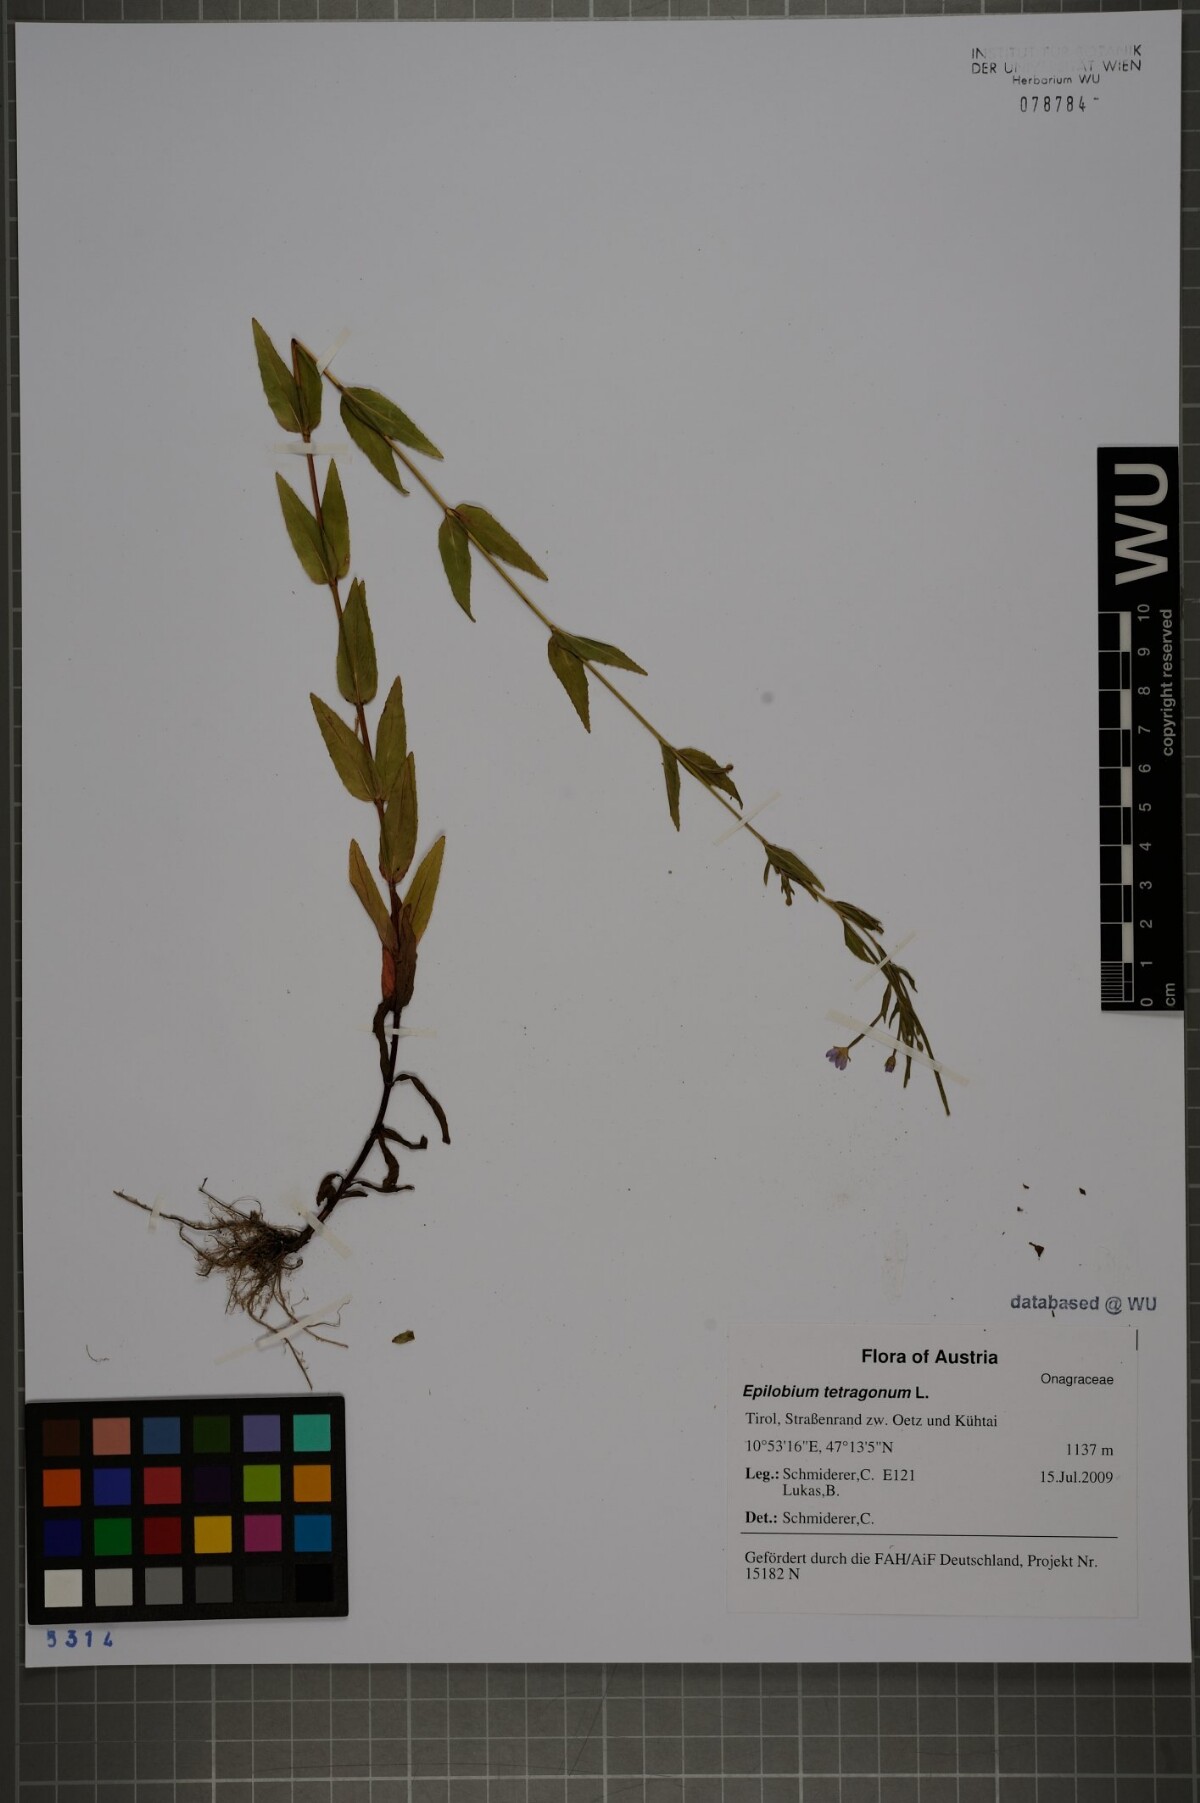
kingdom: Plantae
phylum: Tracheophyta
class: Magnoliopsida
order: Myrtales
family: Onagraceae
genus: Epilobium
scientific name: Epilobium tetragonum
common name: Square-stemmed willowherb
